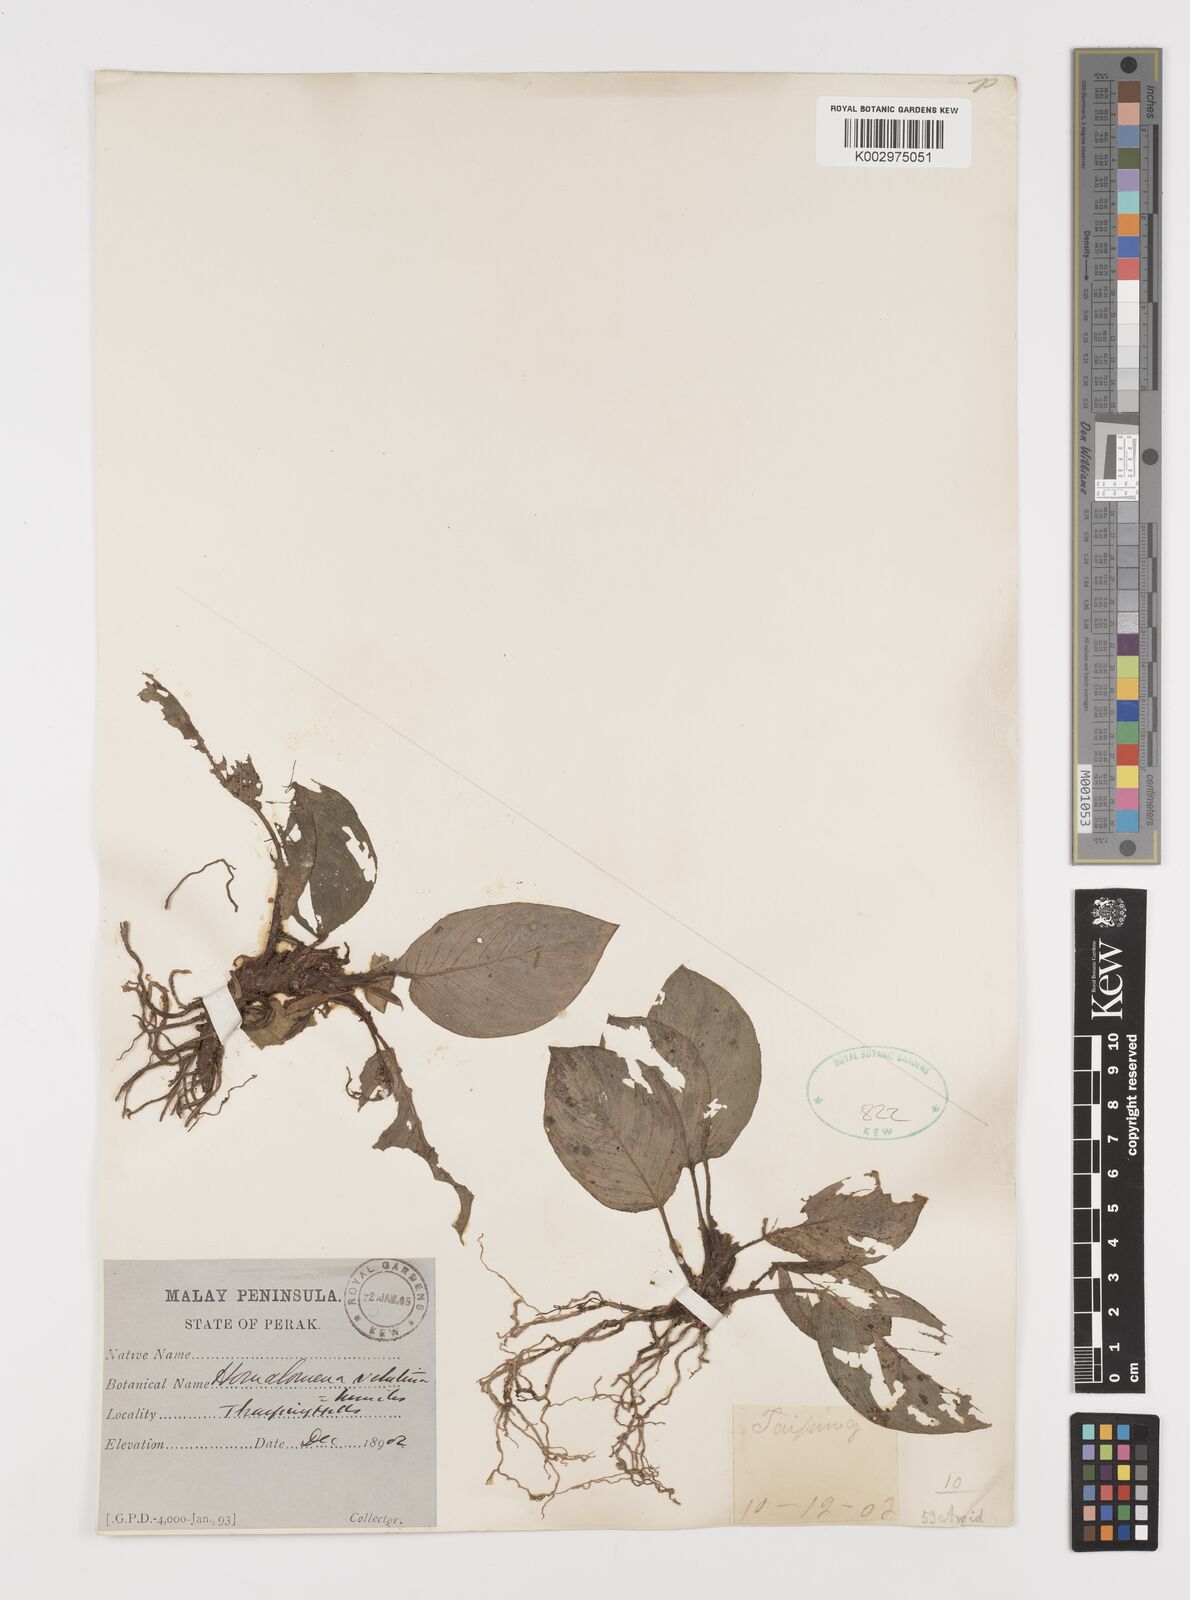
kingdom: Plantae
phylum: Tracheophyta
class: Liliopsida
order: Alismatales
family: Araceae
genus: Homalomena
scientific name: Homalomena humilis
